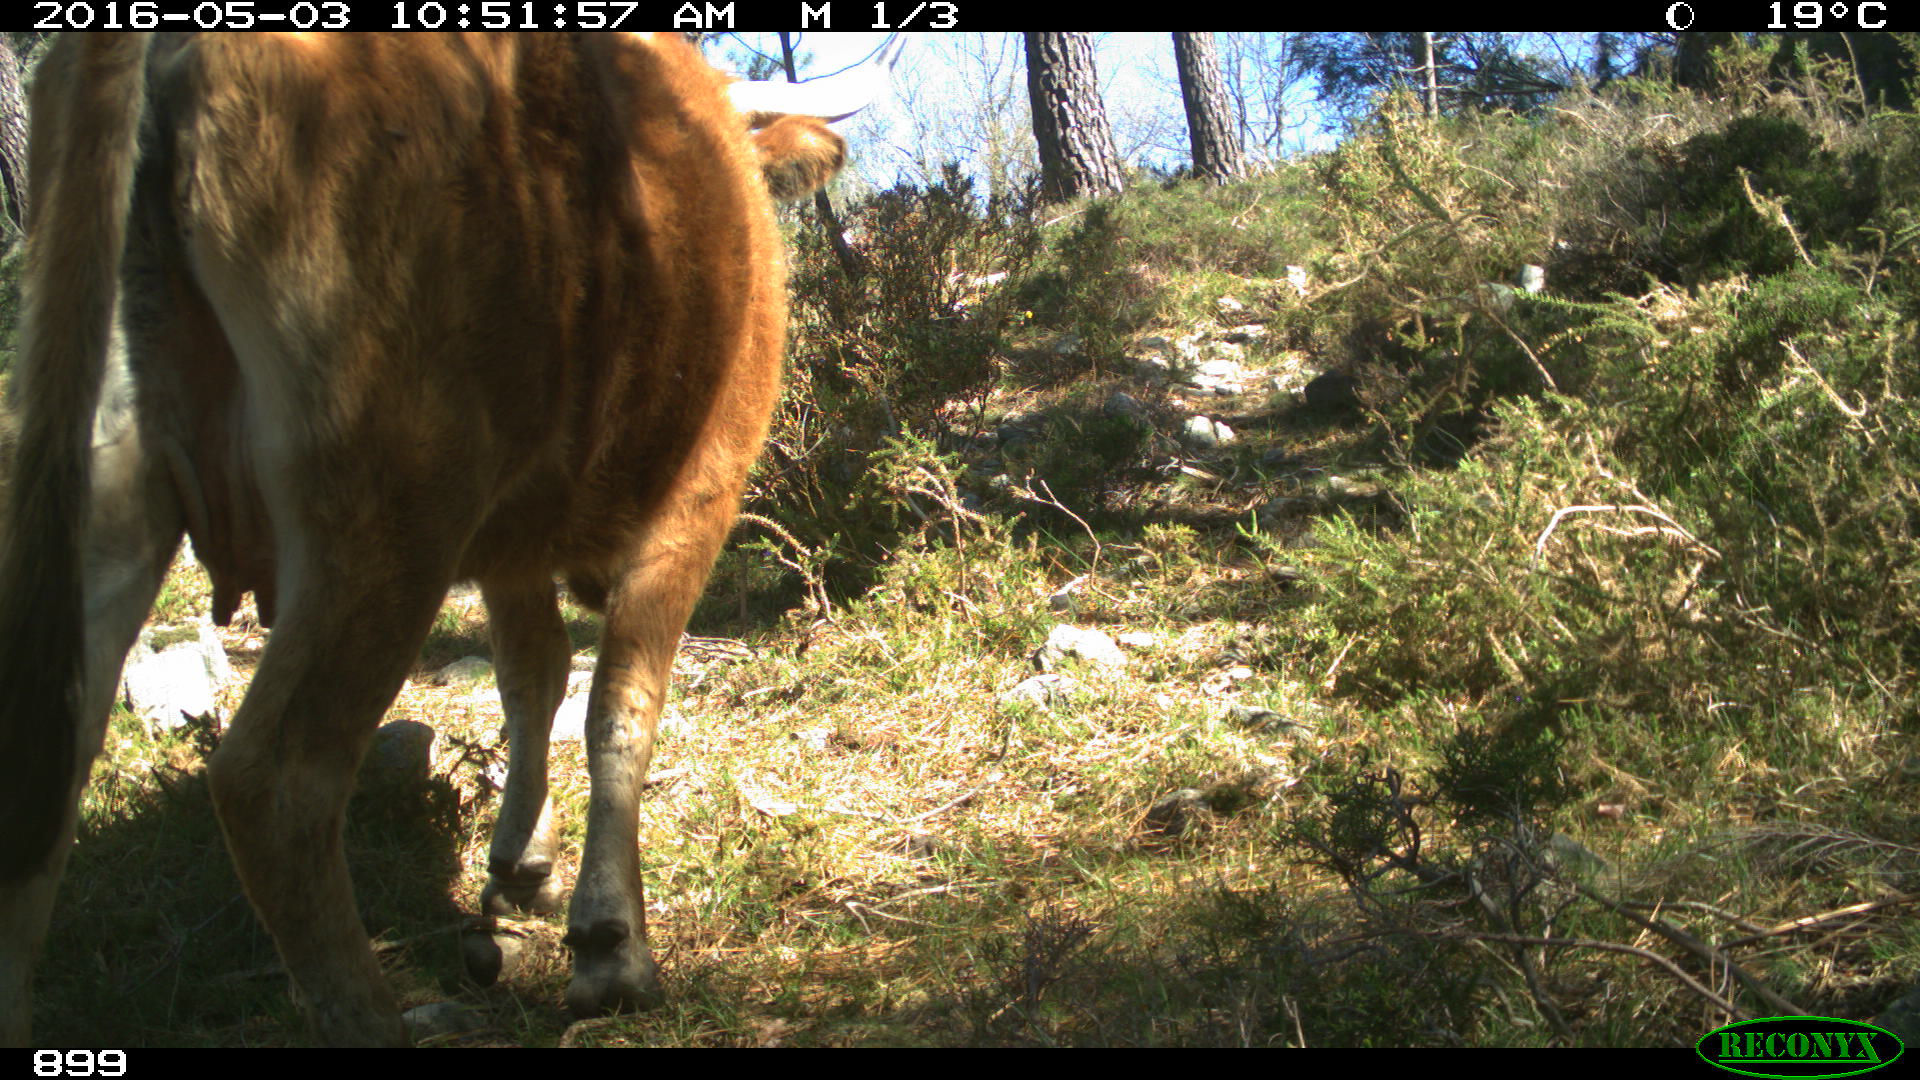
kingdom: Animalia
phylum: Chordata
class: Mammalia
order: Artiodactyla
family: Bovidae
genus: Bos
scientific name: Bos taurus
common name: Domesticated cattle
